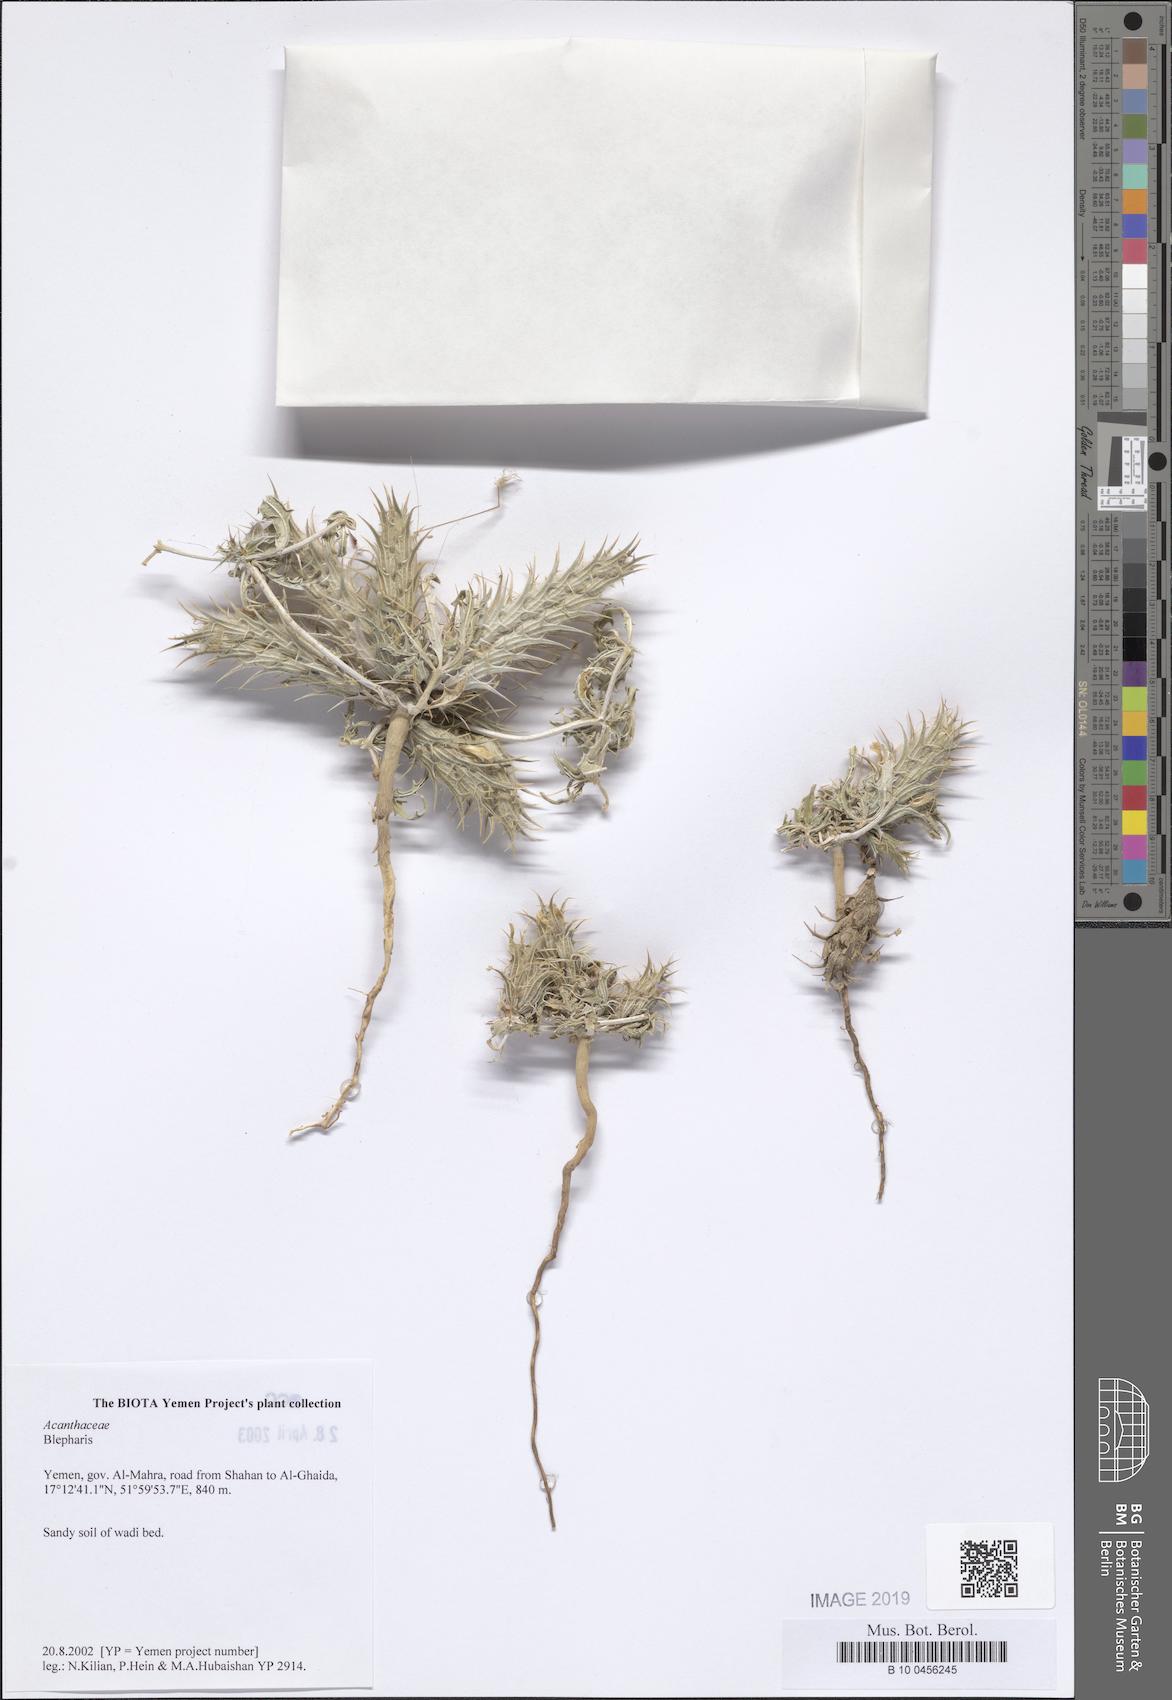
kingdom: Plantae
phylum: Tracheophyta
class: Magnoliopsida
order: Lamiales
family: Acanthaceae
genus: Blepharis
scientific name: Blepharis
